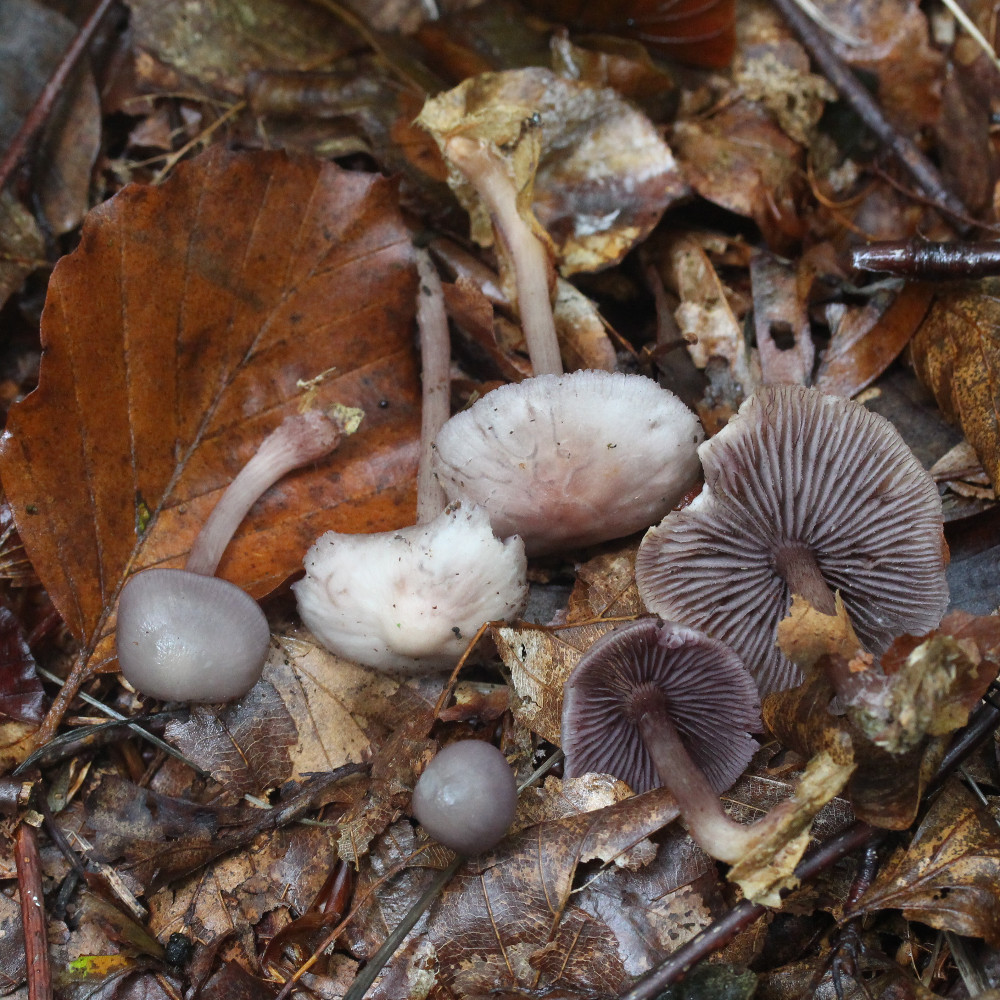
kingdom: Fungi
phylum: Basidiomycota
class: Agaricomycetes
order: Agaricales
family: Mycenaceae
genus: Mycena
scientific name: Mycena pelianthina
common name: mørkbladet huesvamp
